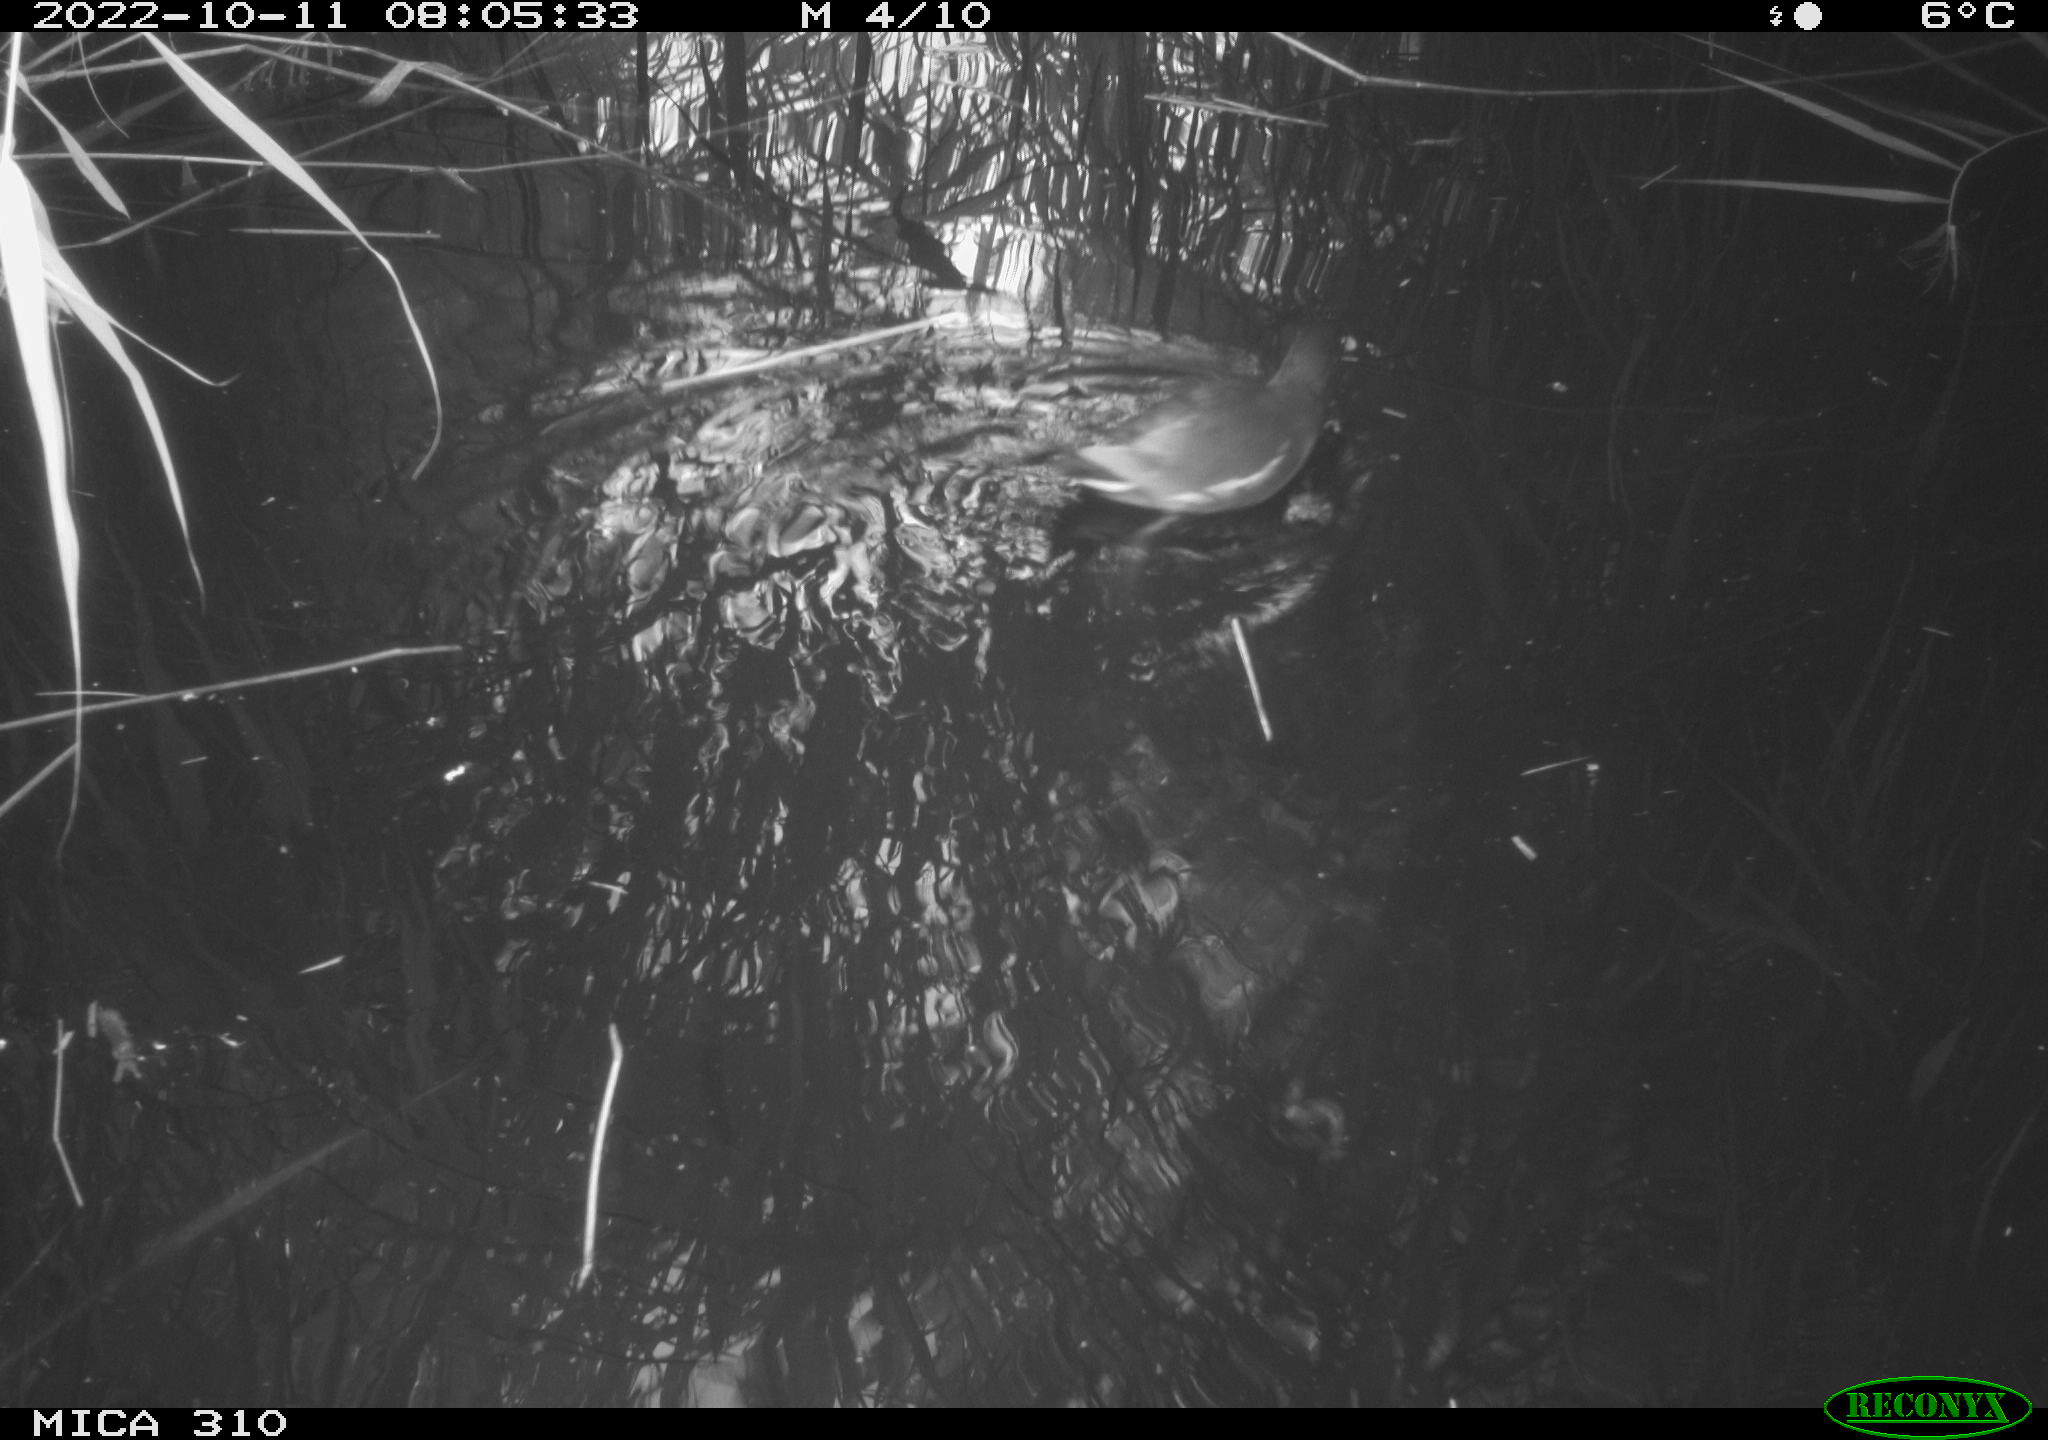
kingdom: Animalia
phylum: Chordata
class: Aves
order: Gruiformes
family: Rallidae
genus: Gallinula
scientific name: Gallinula chloropus
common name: Common moorhen
